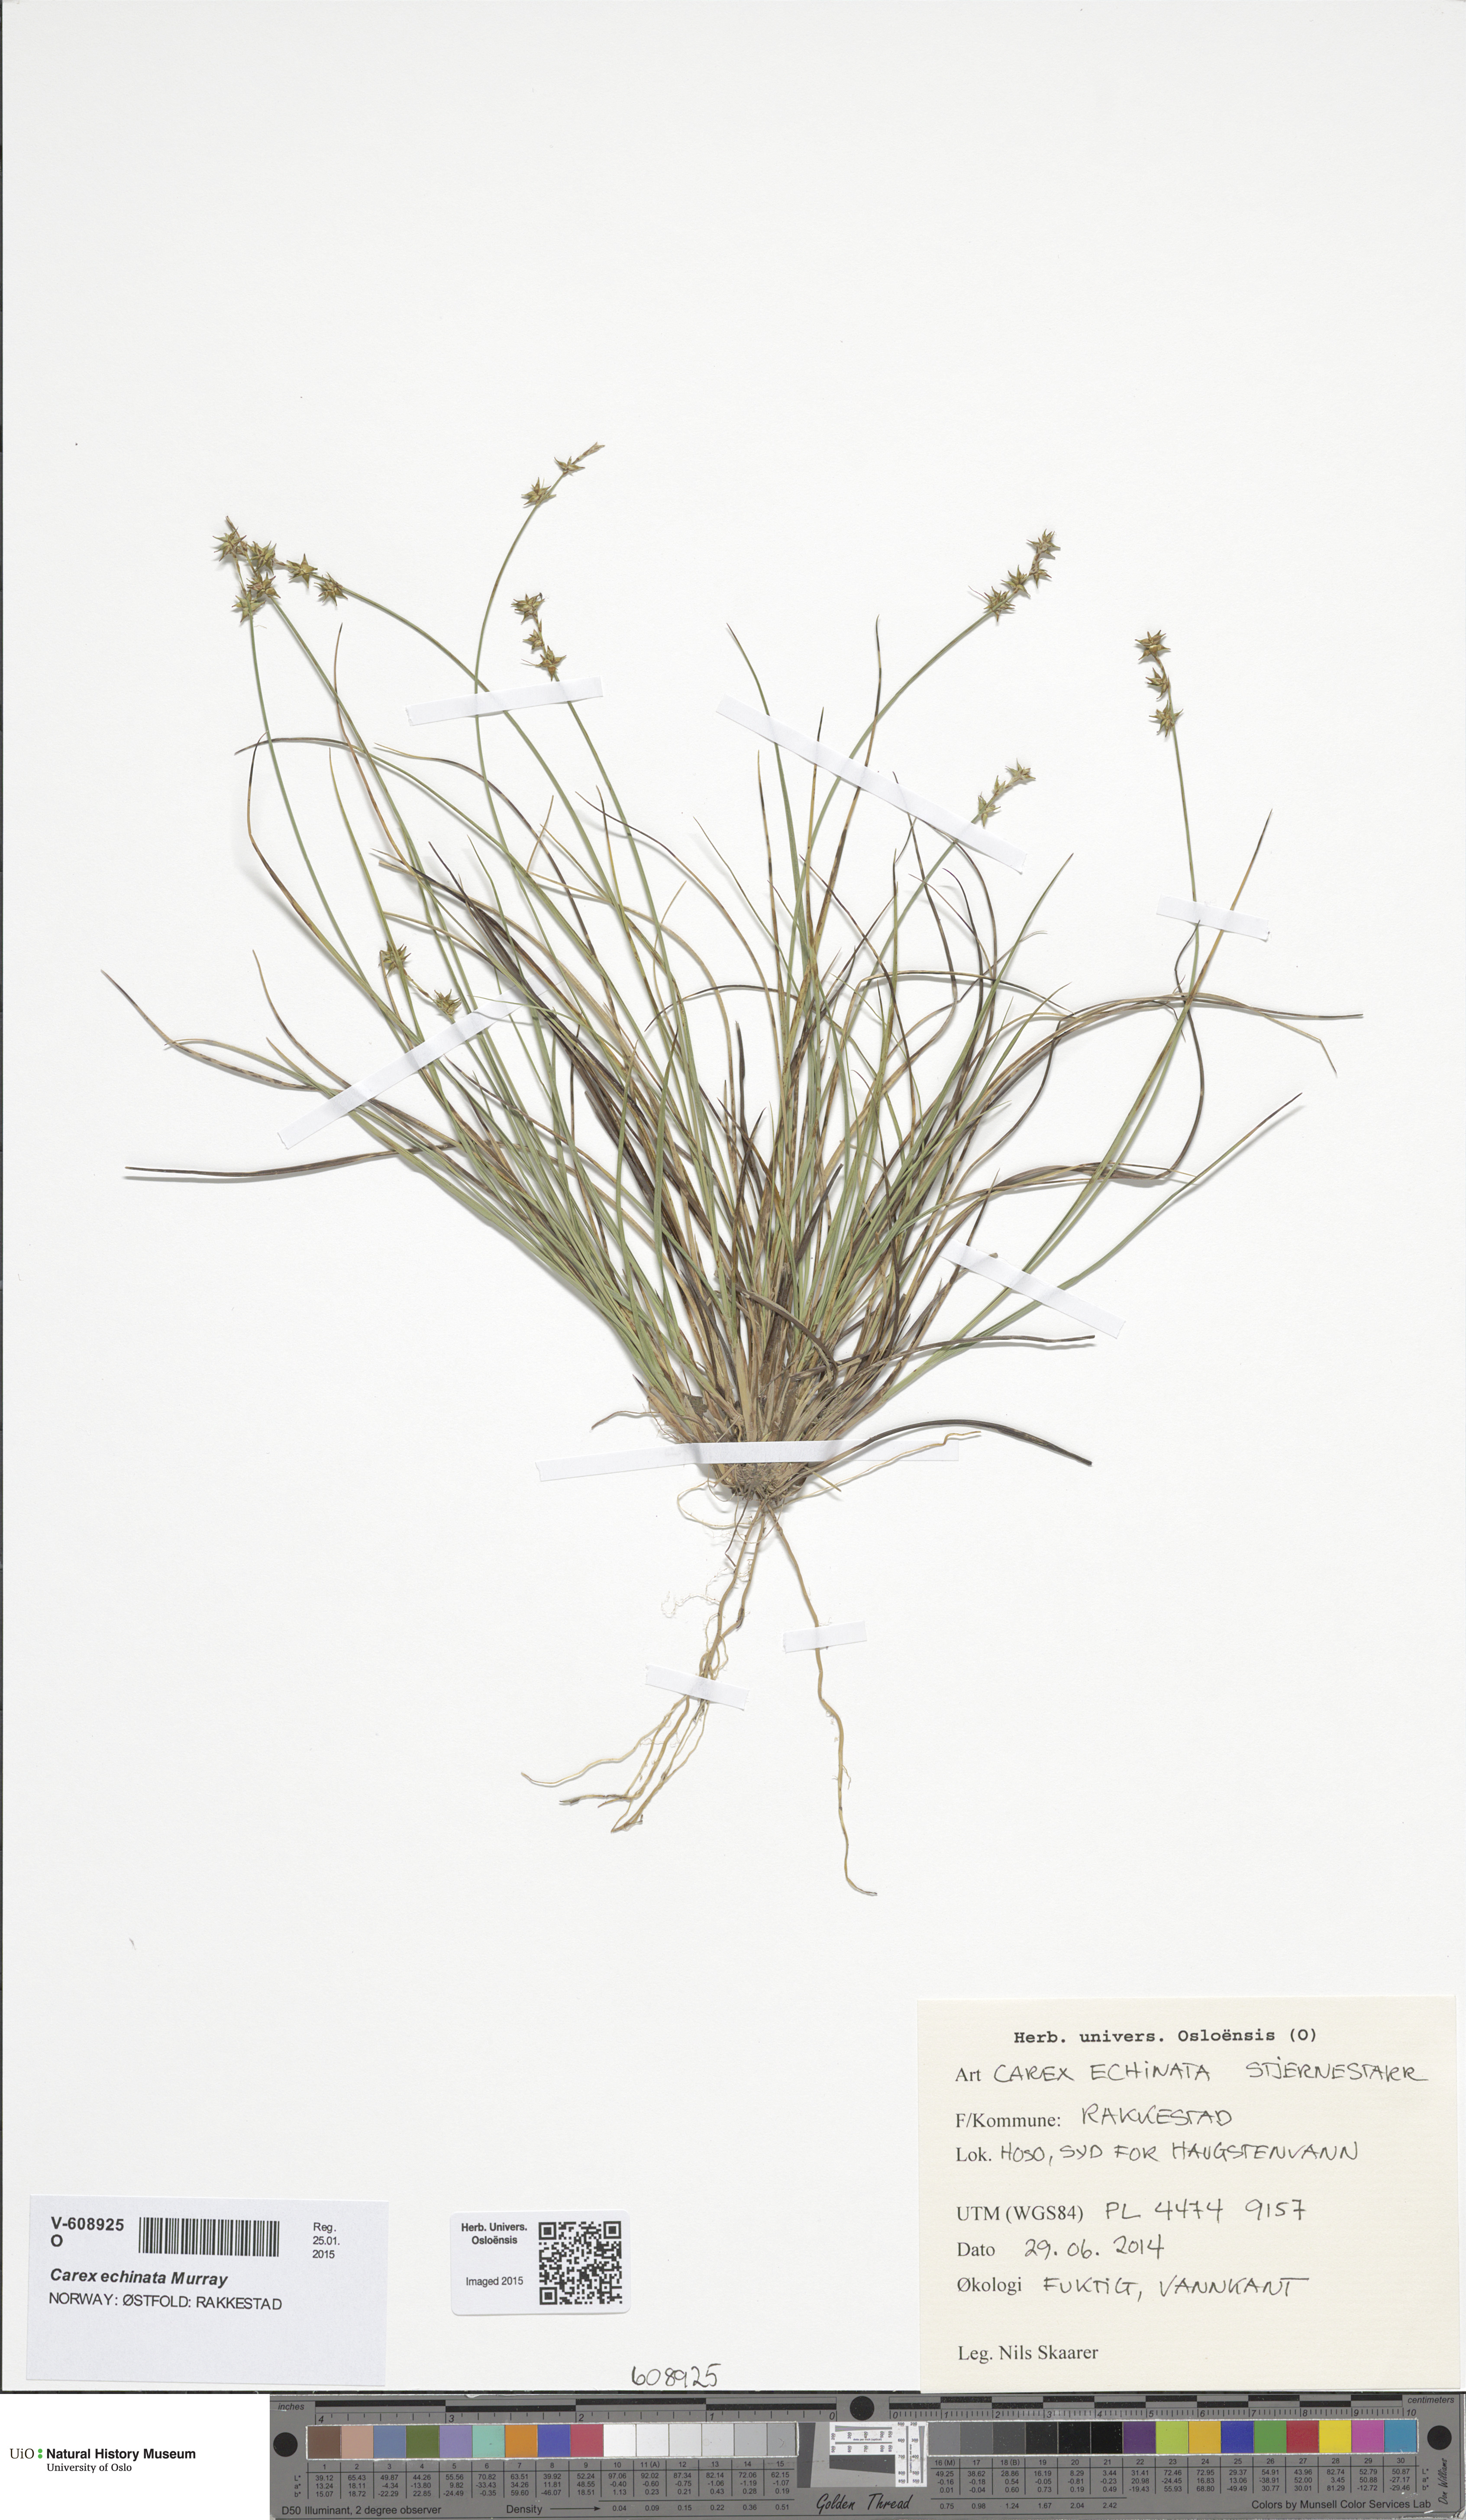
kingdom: Plantae
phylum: Tracheophyta
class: Liliopsida
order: Poales
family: Cyperaceae
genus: Carex
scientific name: Carex echinata
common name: Star sedge
